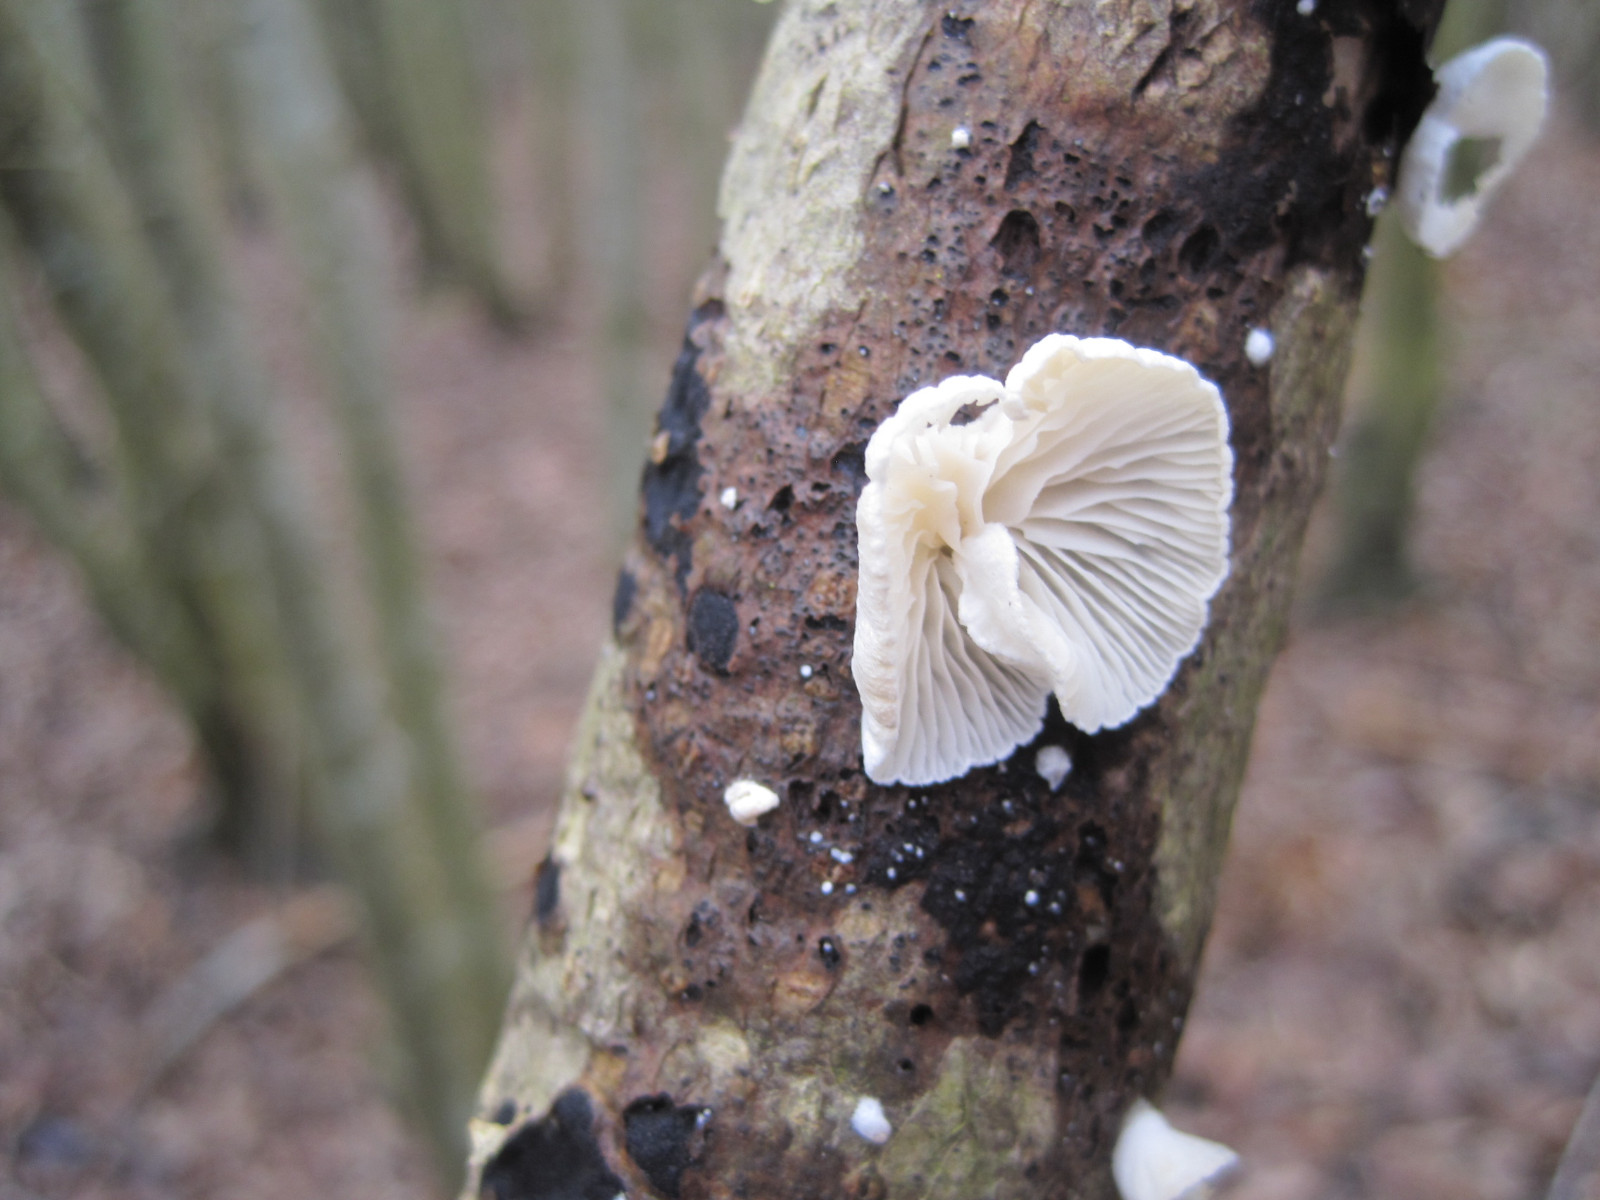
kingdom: Fungi
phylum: Basidiomycota
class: Agaricomycetes
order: Agaricales
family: Crepidotaceae
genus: Crepidotus
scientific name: Crepidotus cesatii
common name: almindelig muslingesvamp
